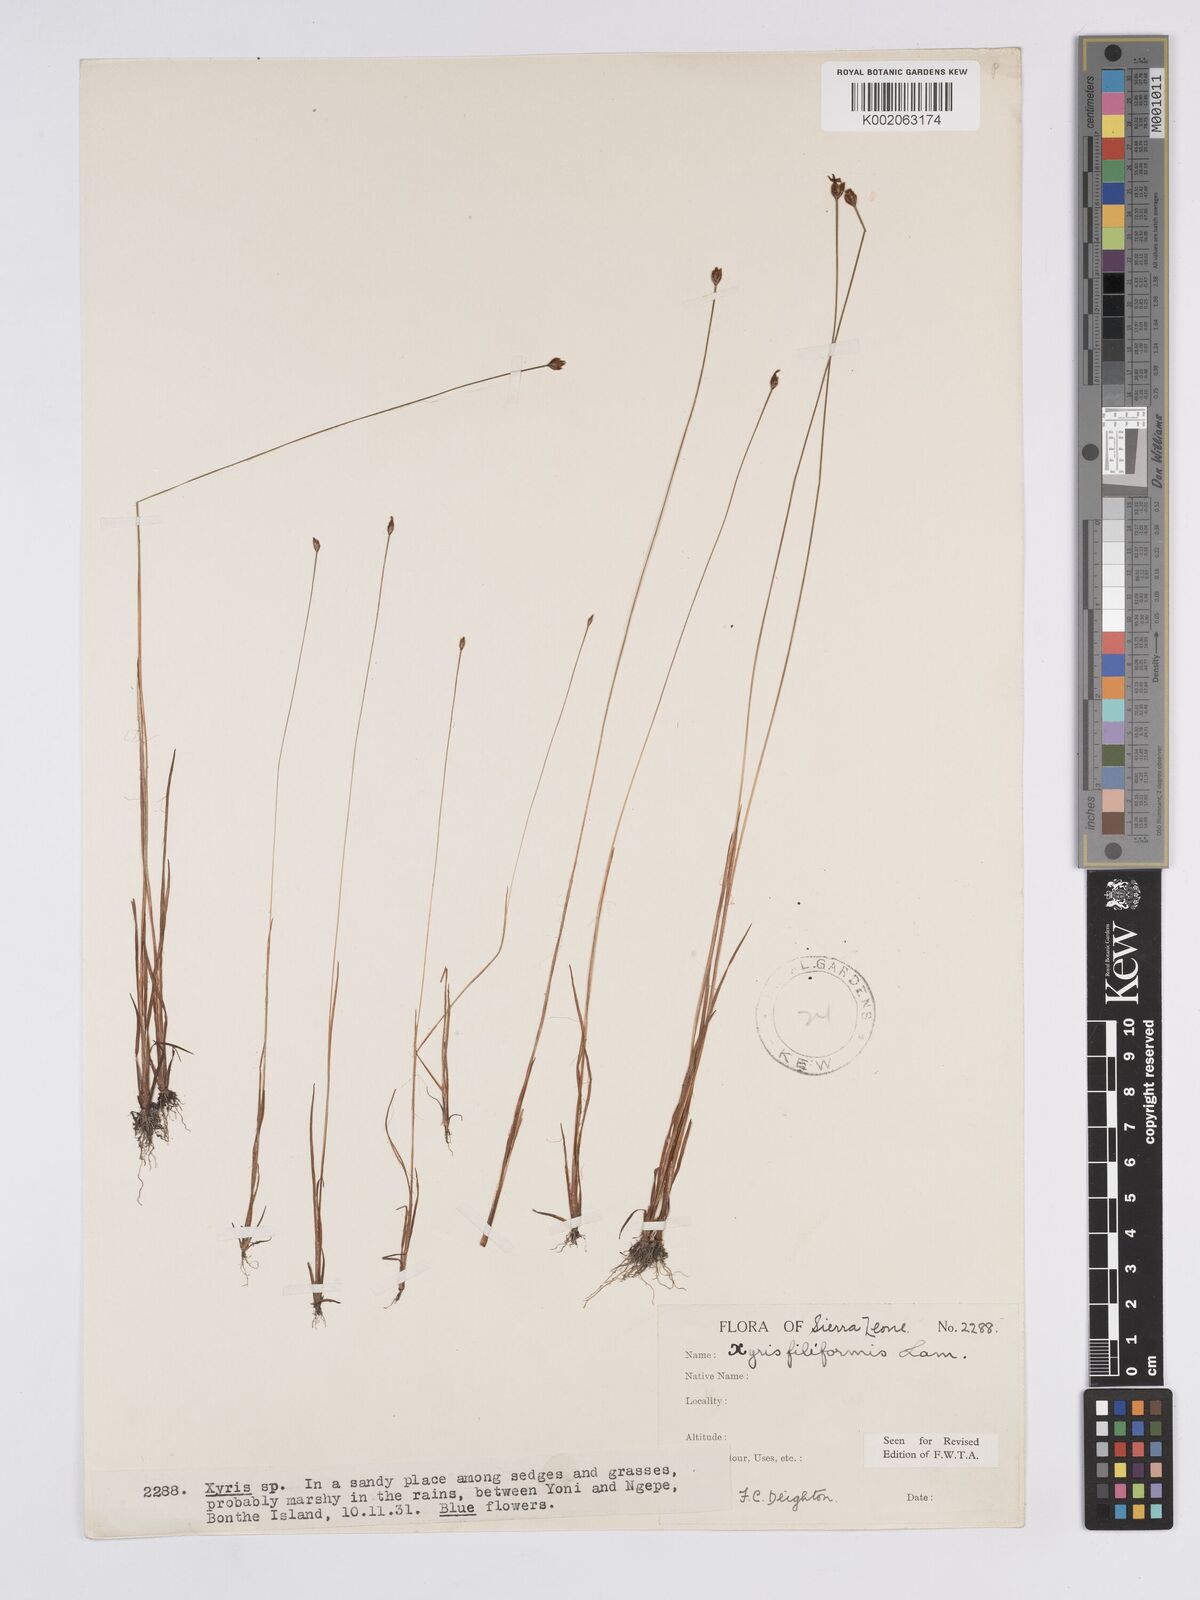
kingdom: Plantae
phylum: Tracheophyta
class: Liliopsida
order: Poales
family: Xyridaceae
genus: Xyris
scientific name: Xyris filiformis
